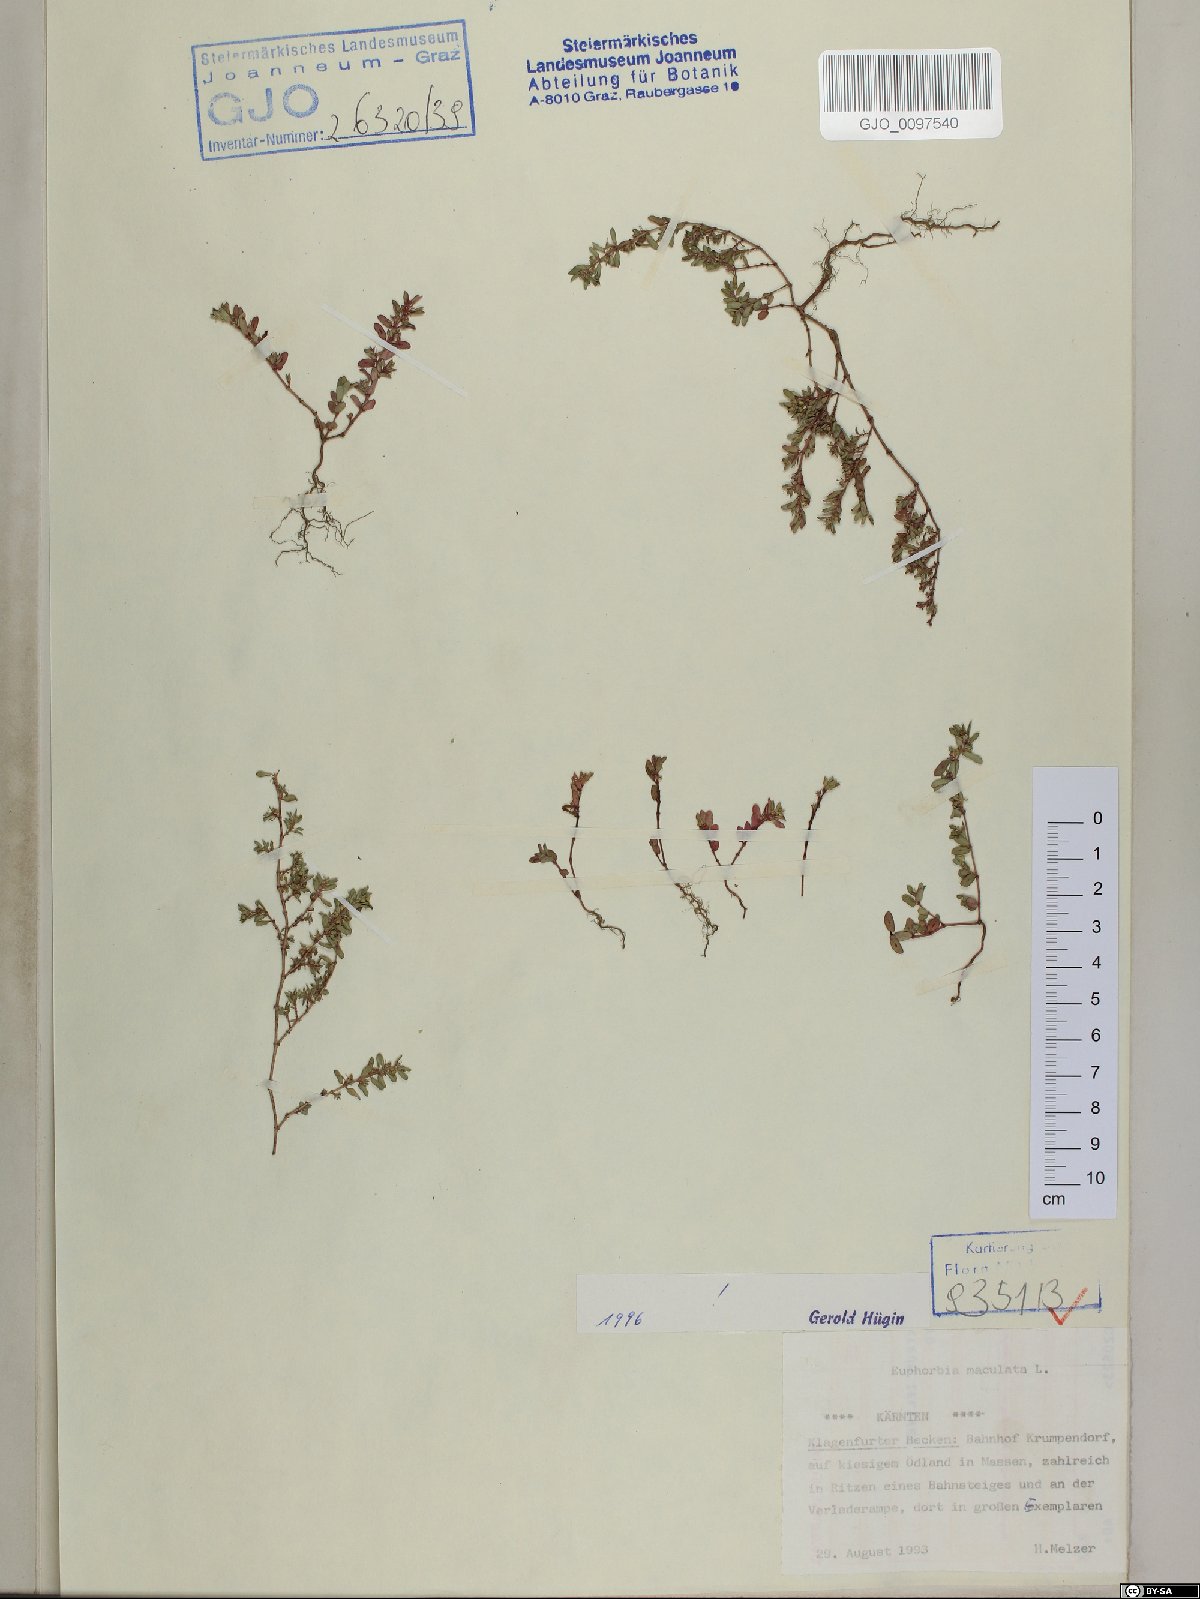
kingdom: Plantae
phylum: Tracheophyta
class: Magnoliopsida
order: Malpighiales
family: Euphorbiaceae
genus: Euphorbia
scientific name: Euphorbia maculata
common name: Spotted spurge
